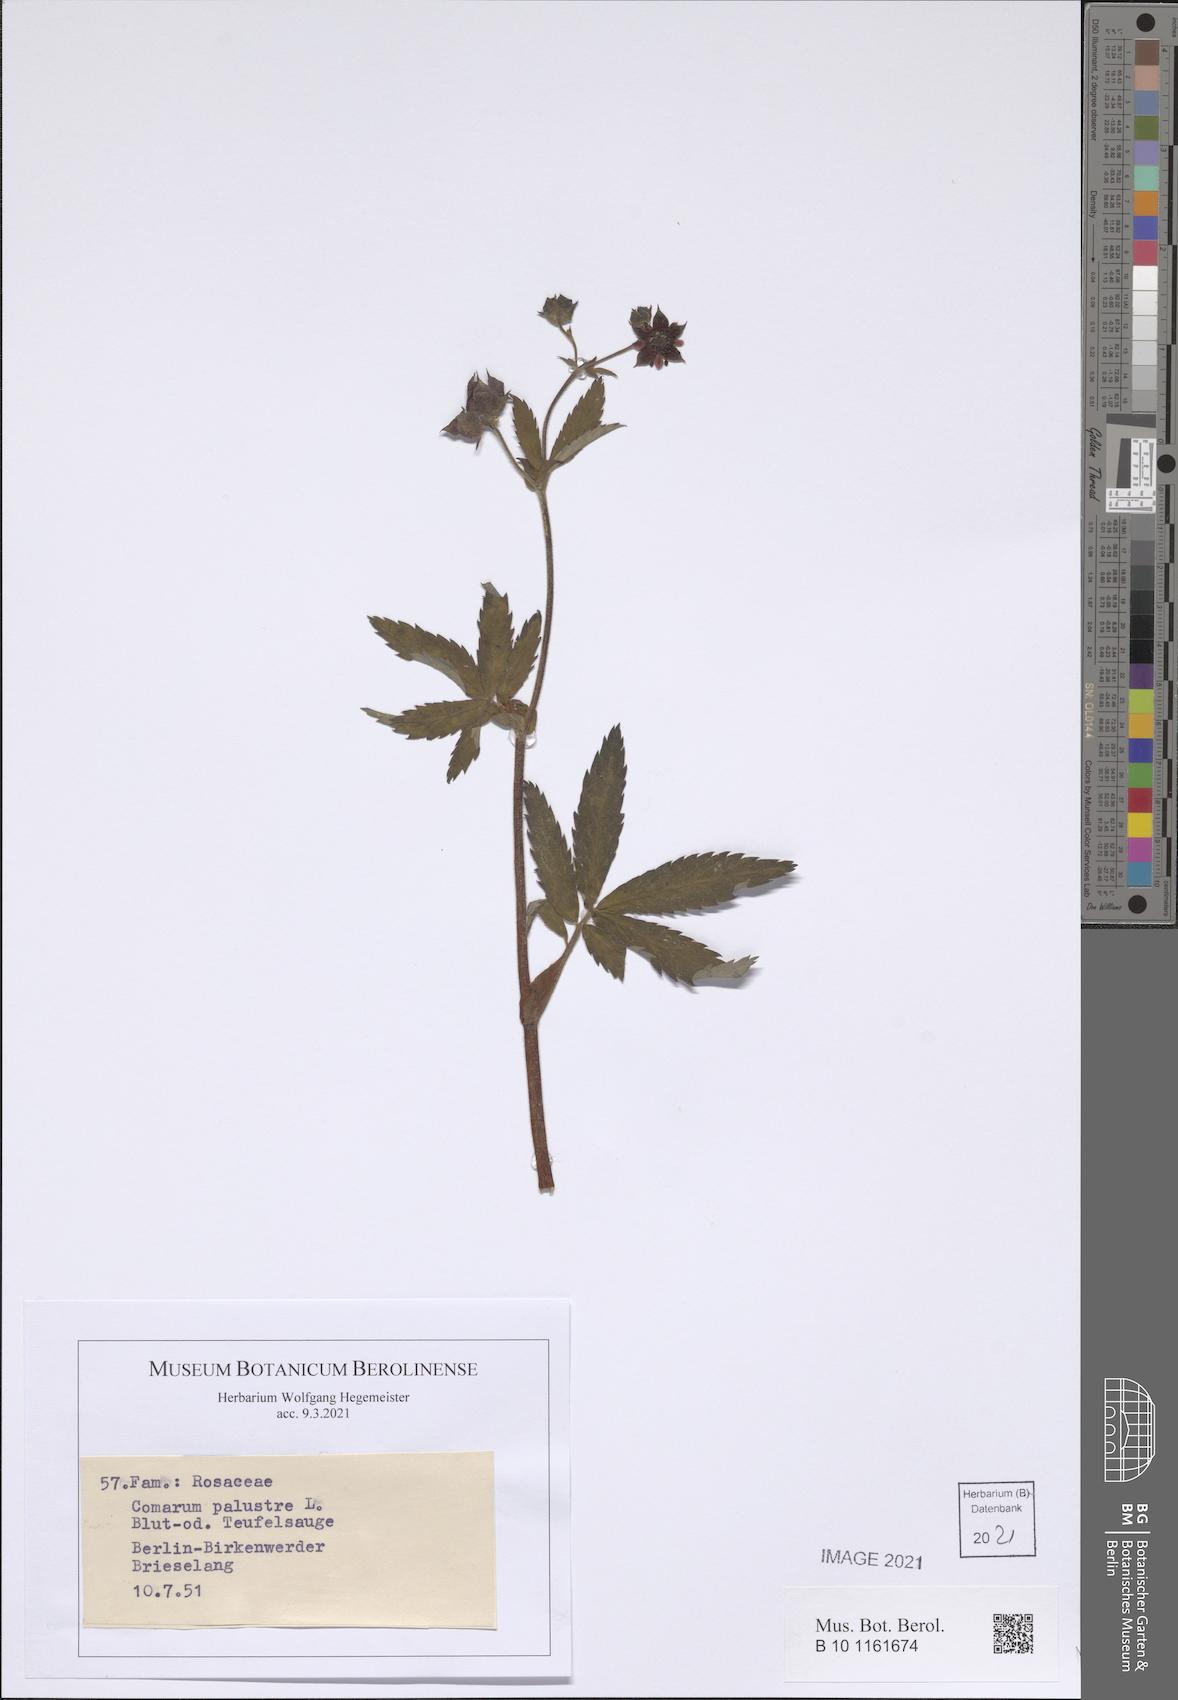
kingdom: Plantae
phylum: Tracheophyta
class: Magnoliopsida
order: Rosales
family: Rosaceae
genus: Comarum
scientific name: Comarum palustre
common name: Marsh cinquefoil
